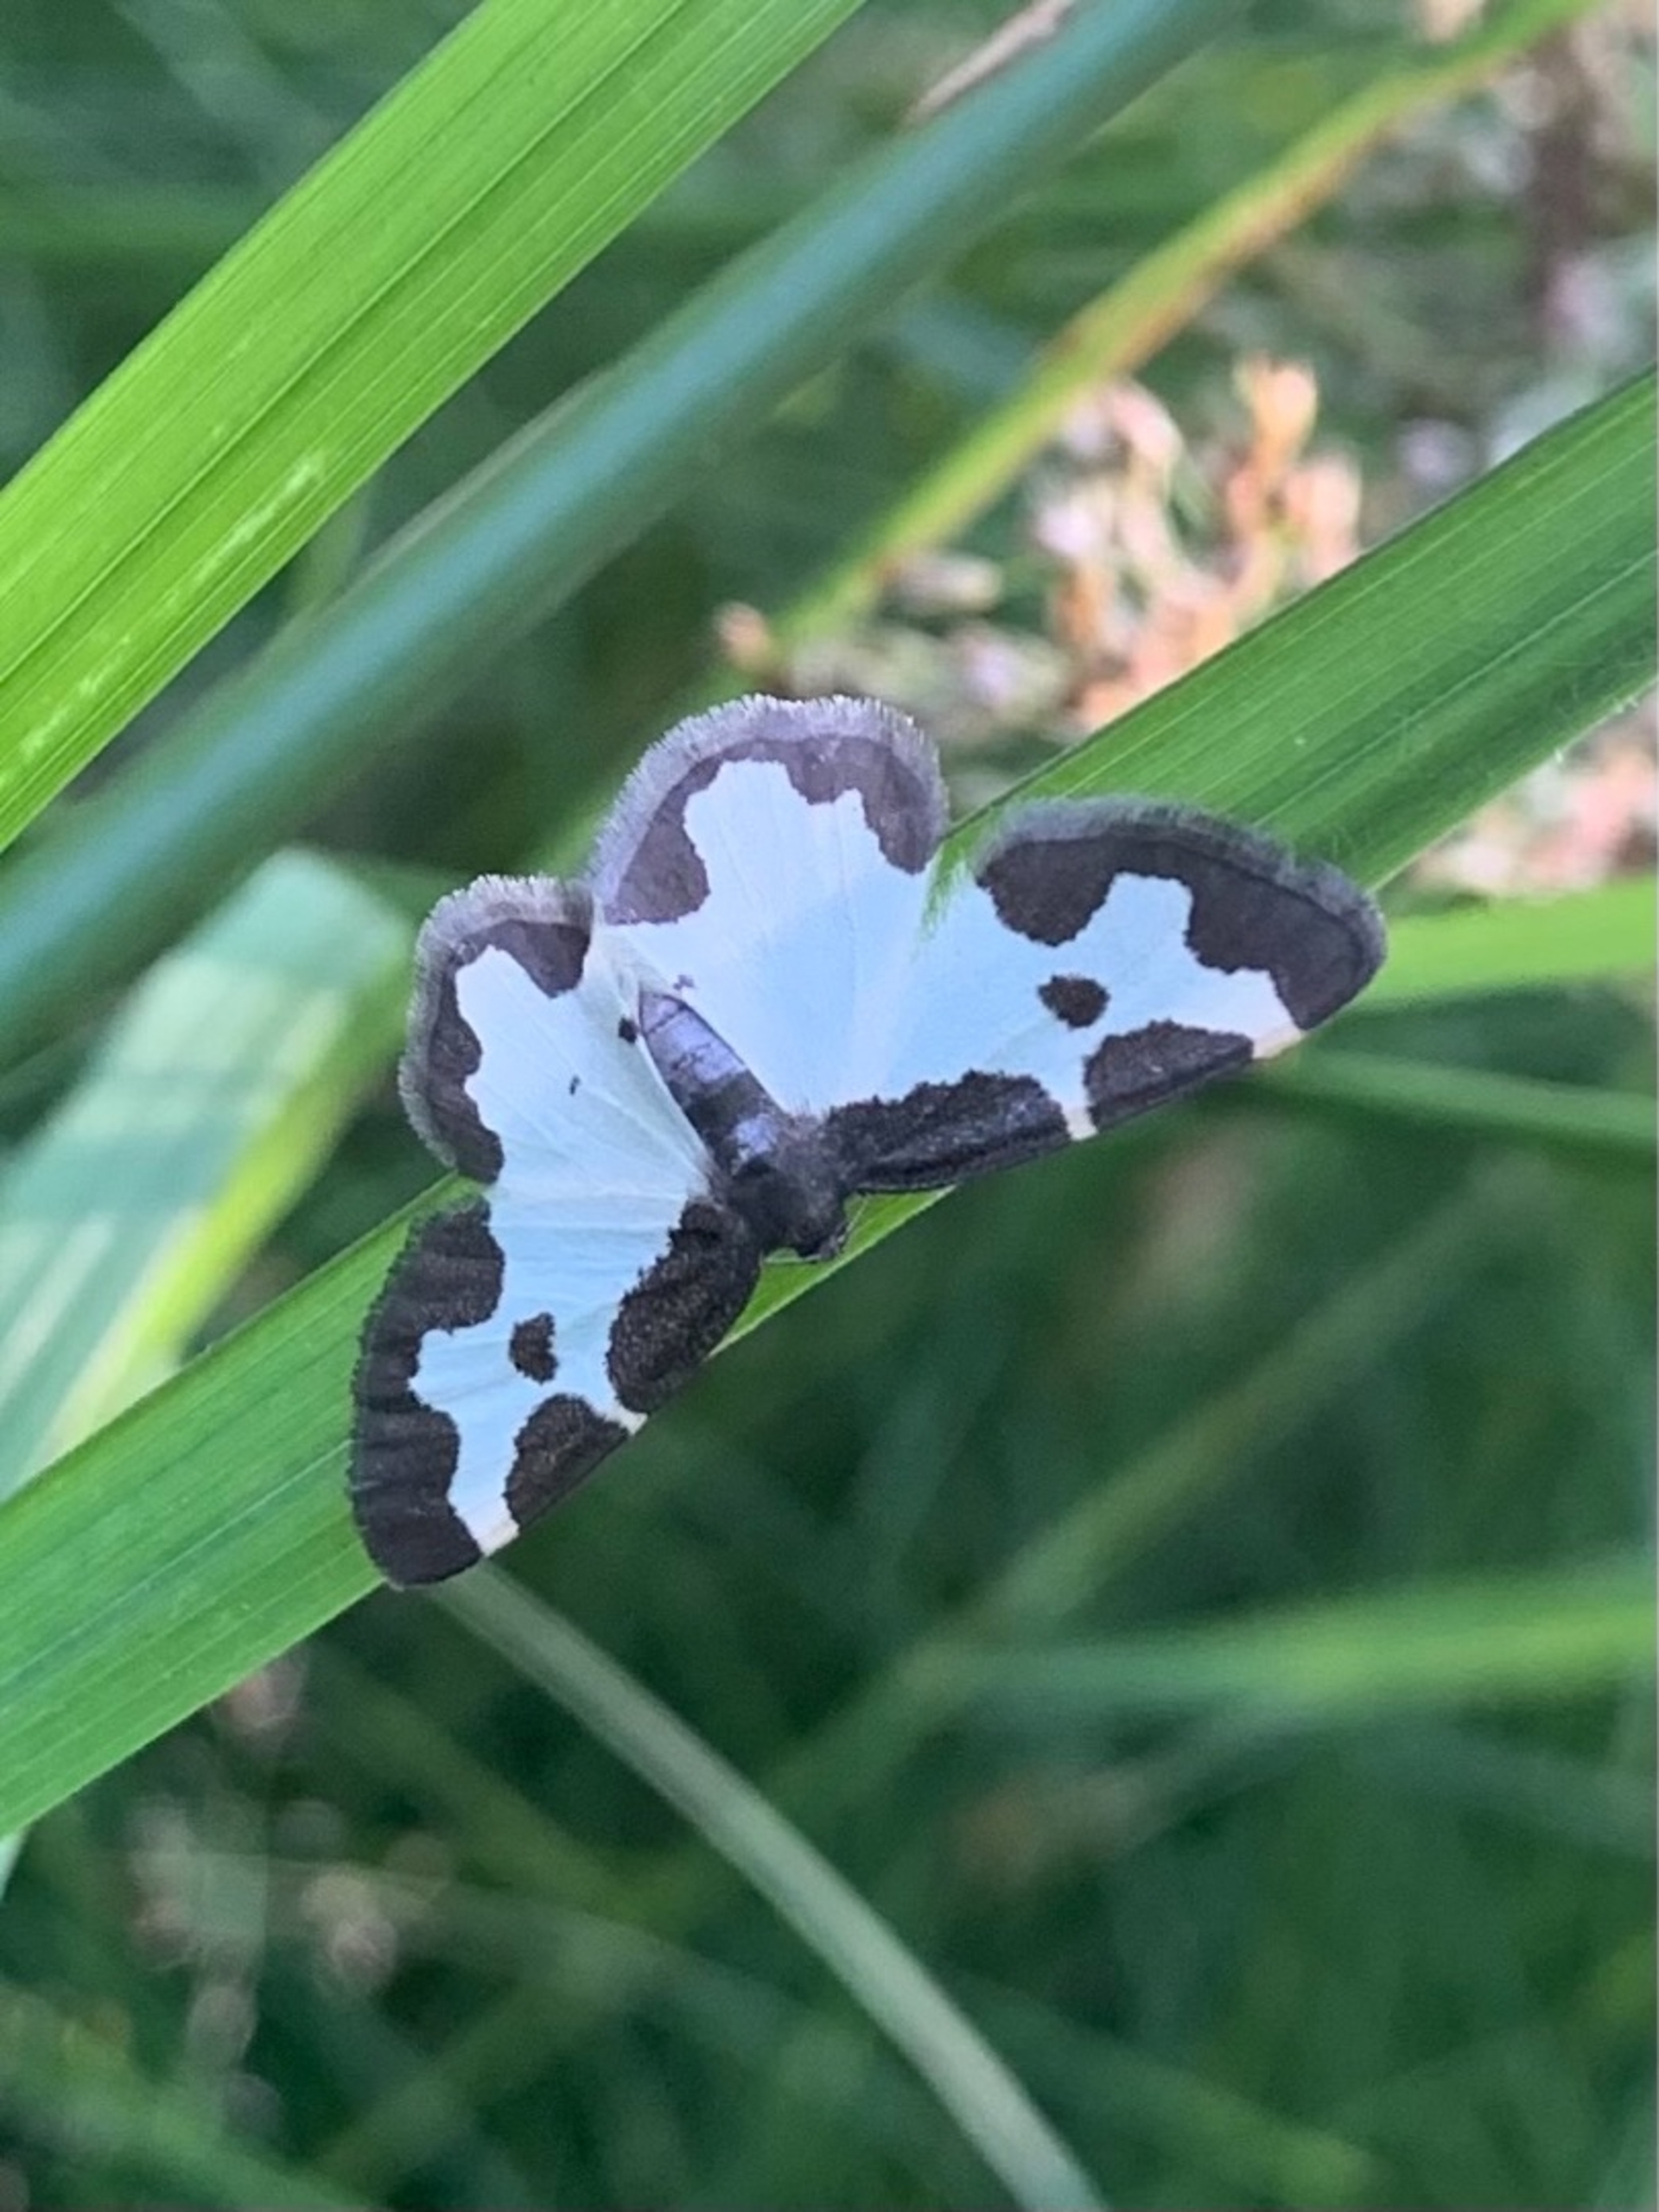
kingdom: Animalia
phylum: Arthropoda
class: Insecta
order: Lepidoptera
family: Geometridae
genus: Lomaspilis
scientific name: Lomaspilis marginata
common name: Sortrandet måler
